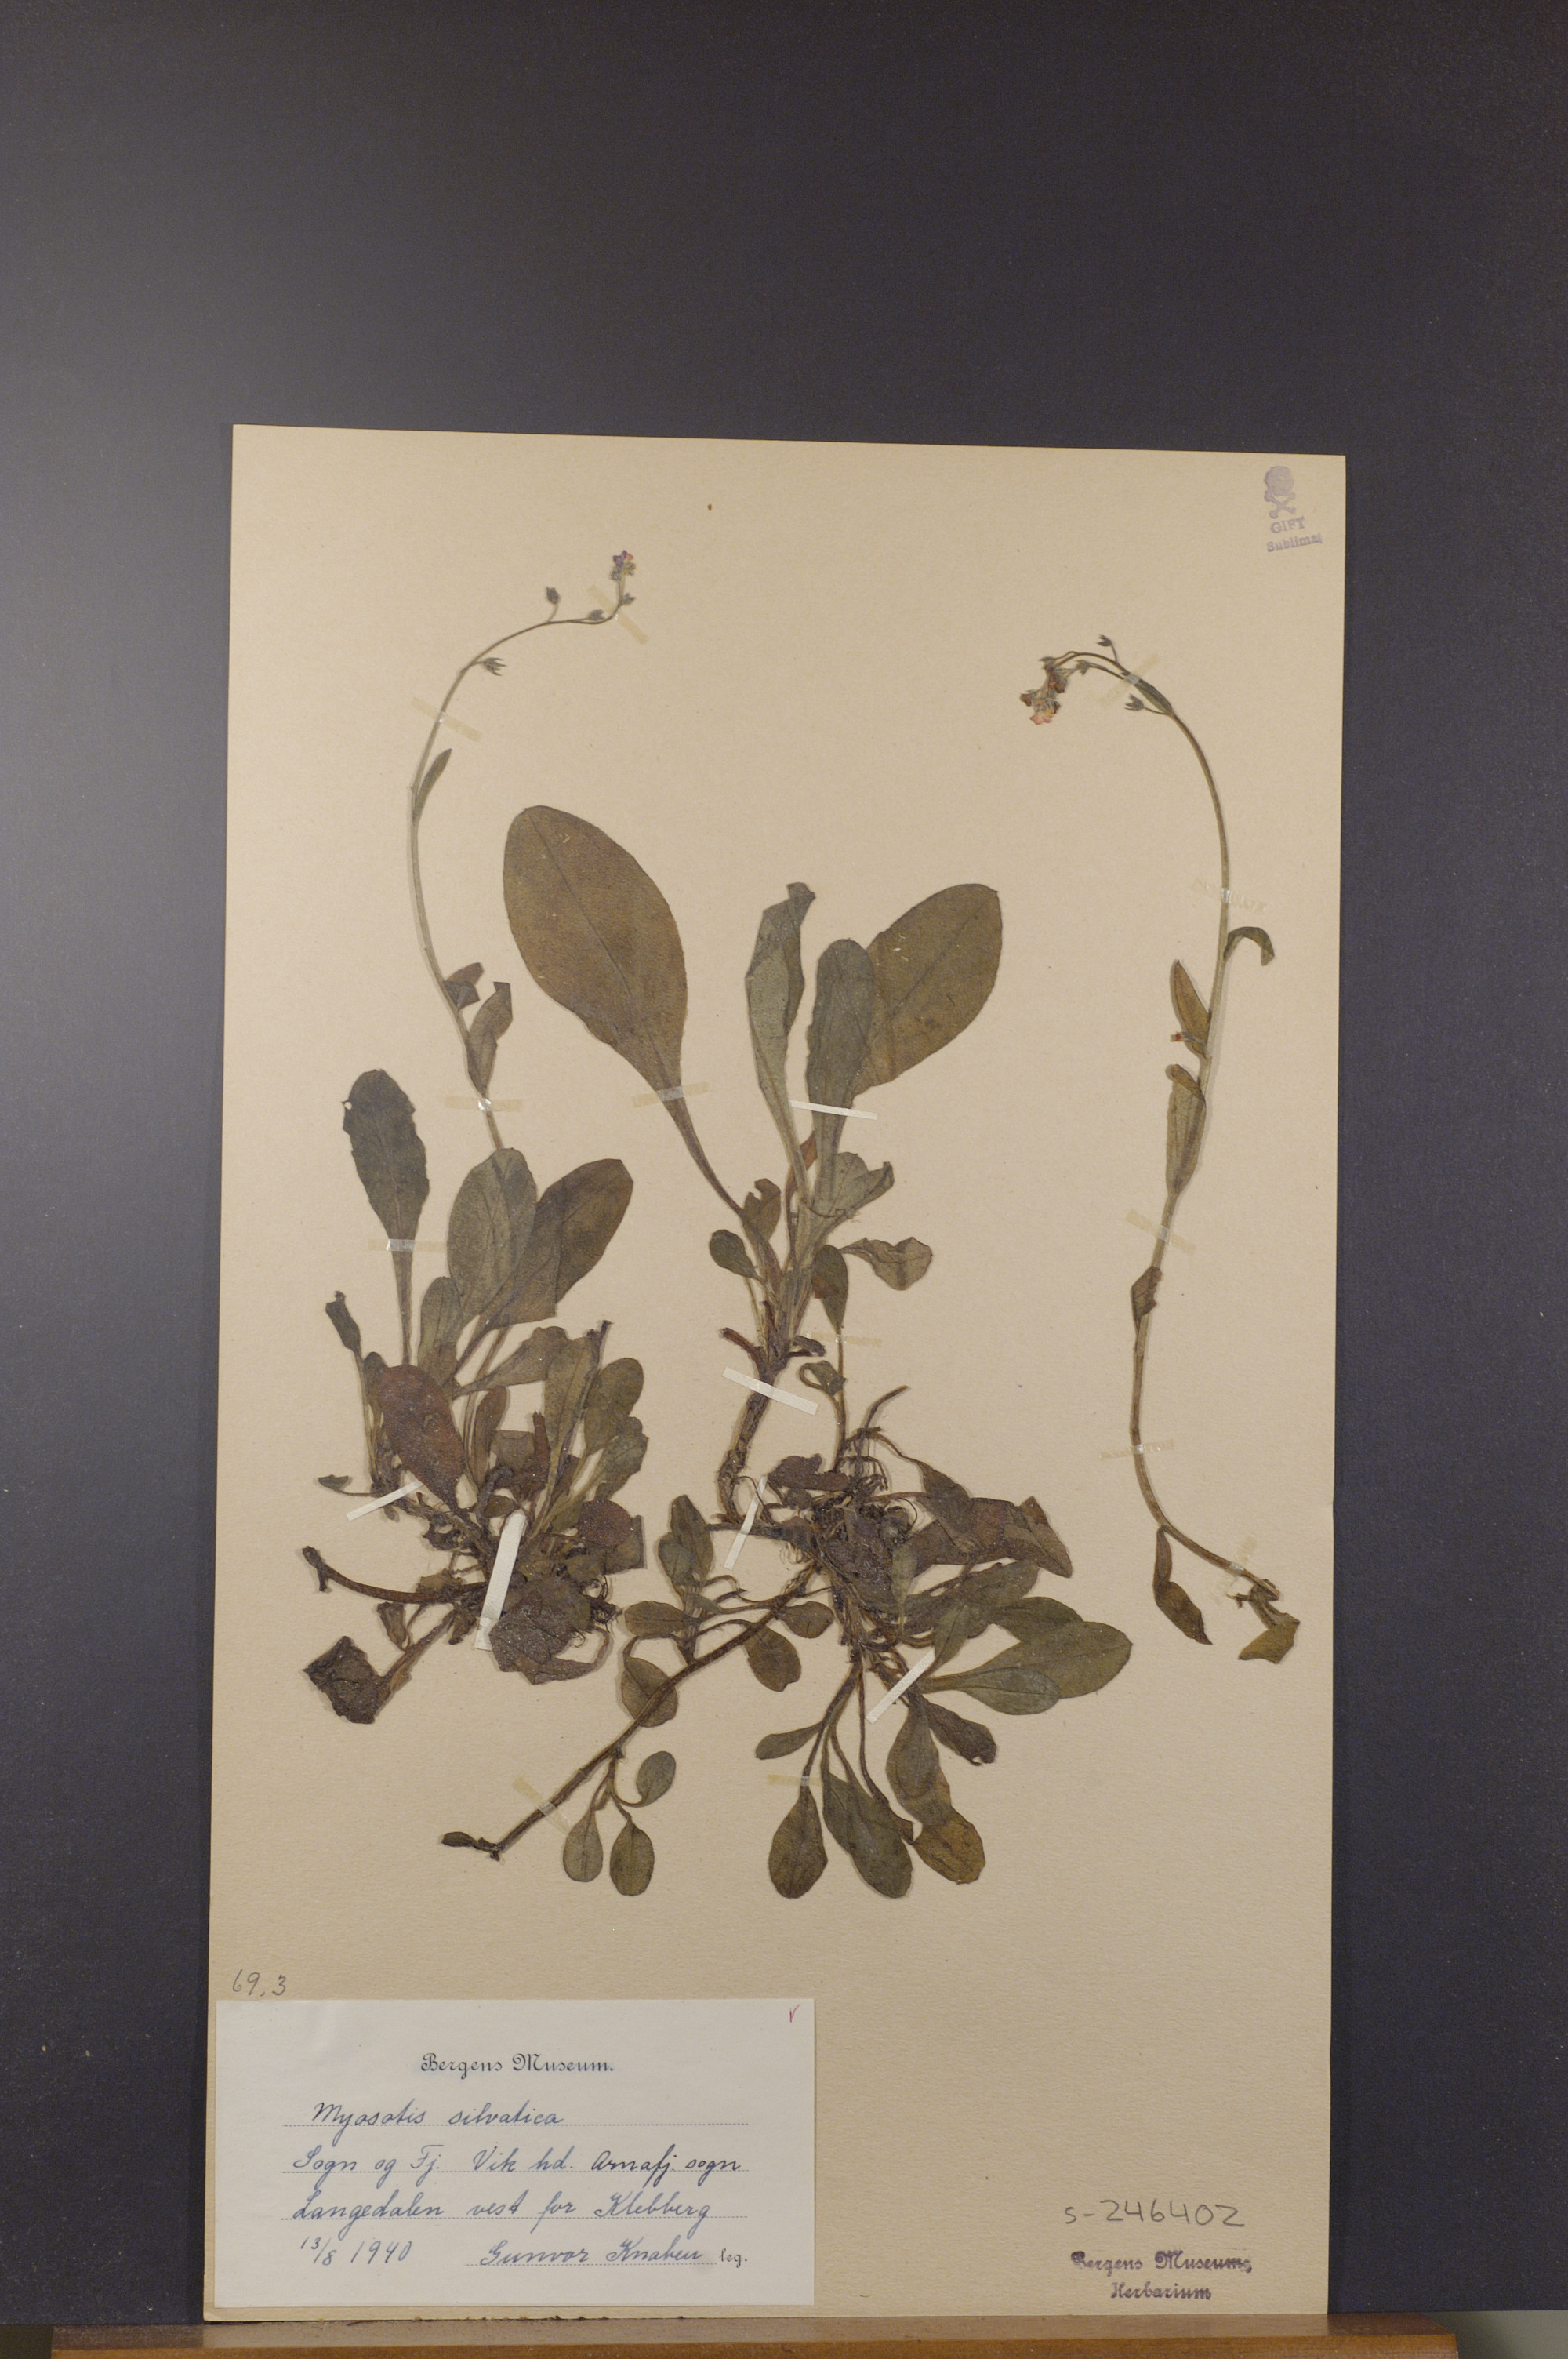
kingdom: Plantae
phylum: Tracheophyta
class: Magnoliopsida
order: Boraginales
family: Boraginaceae
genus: Myosotis
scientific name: Myosotis decumbens
